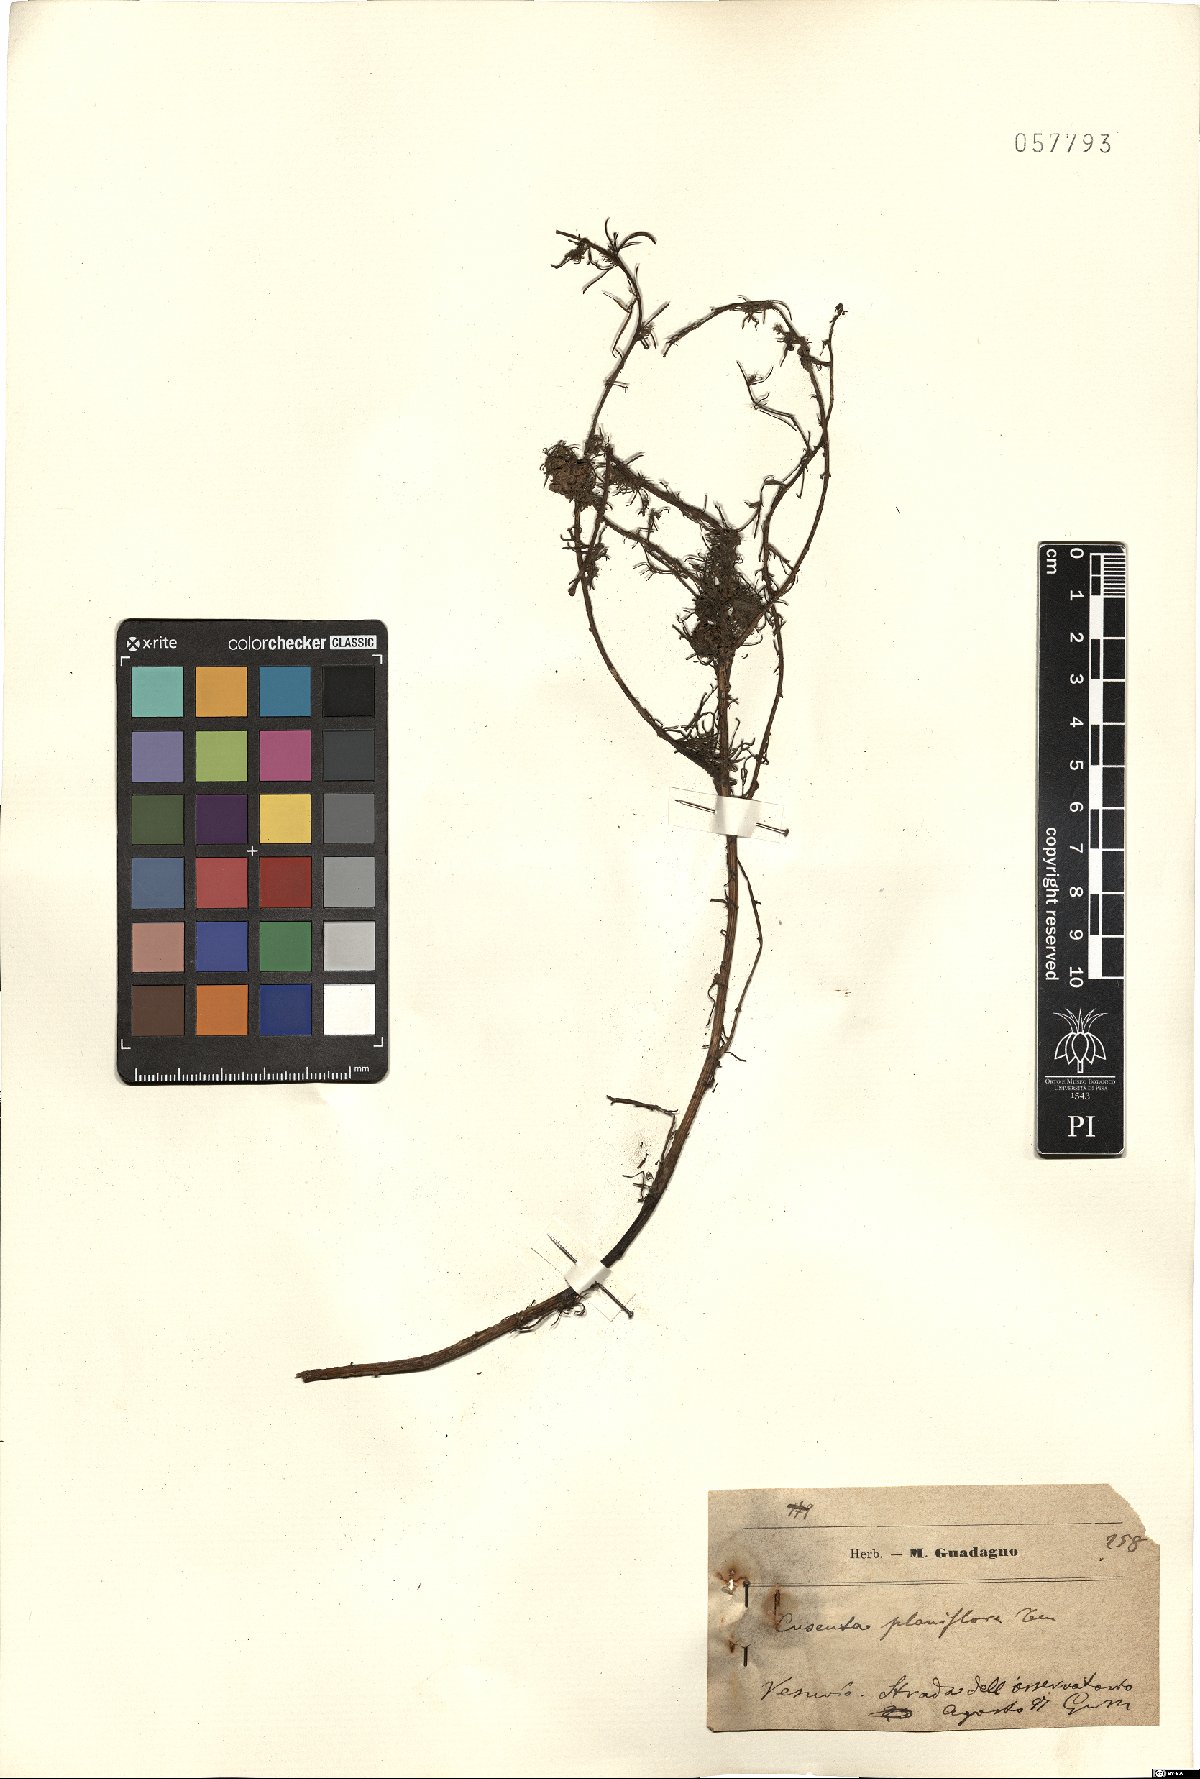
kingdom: Plantae
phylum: Tracheophyta
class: Magnoliopsida
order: Solanales
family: Convolvulaceae
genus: Cuscuta
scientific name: Cuscuta planiflora
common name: Small-seed alfalfa dodder
